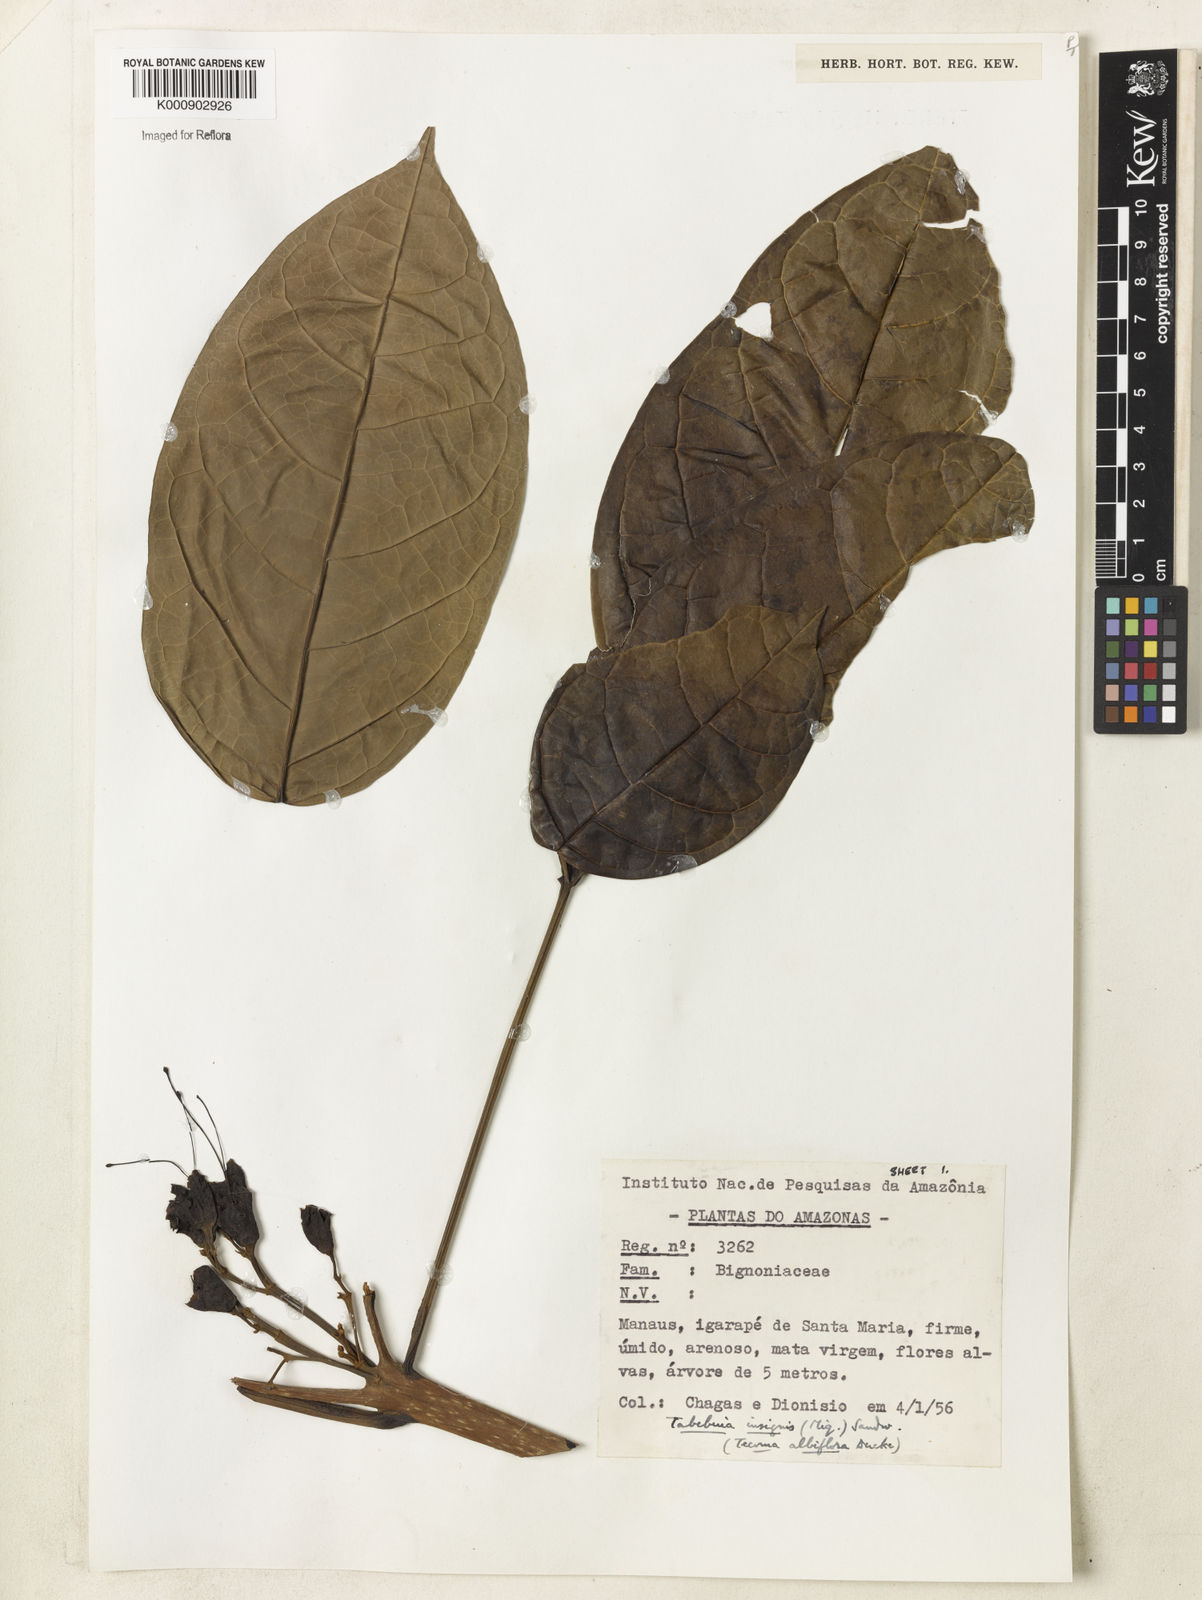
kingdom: Plantae
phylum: Tracheophyta
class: Magnoliopsida
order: Lamiales
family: Bignoniaceae
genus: Tabebuia
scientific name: Tabebuia insignis
